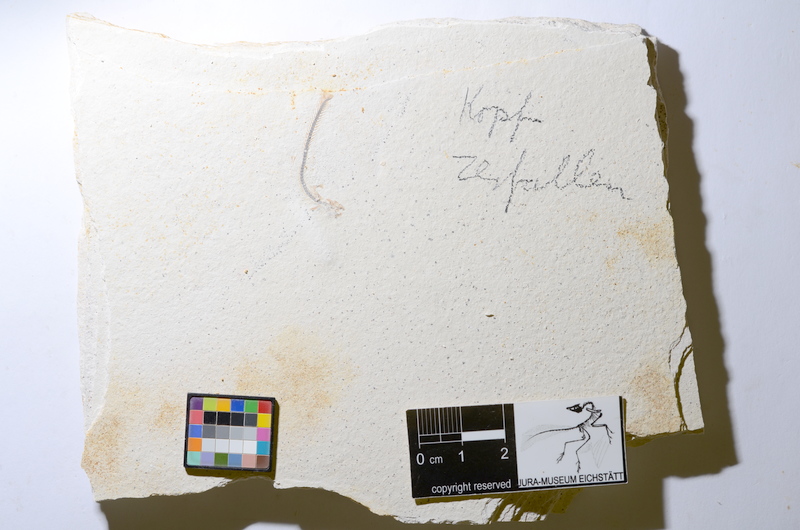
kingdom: Animalia
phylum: Chordata
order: Salmoniformes
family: Orthogonikleithridae
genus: Orthogonikleithrus
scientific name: Orthogonikleithrus hoelli
